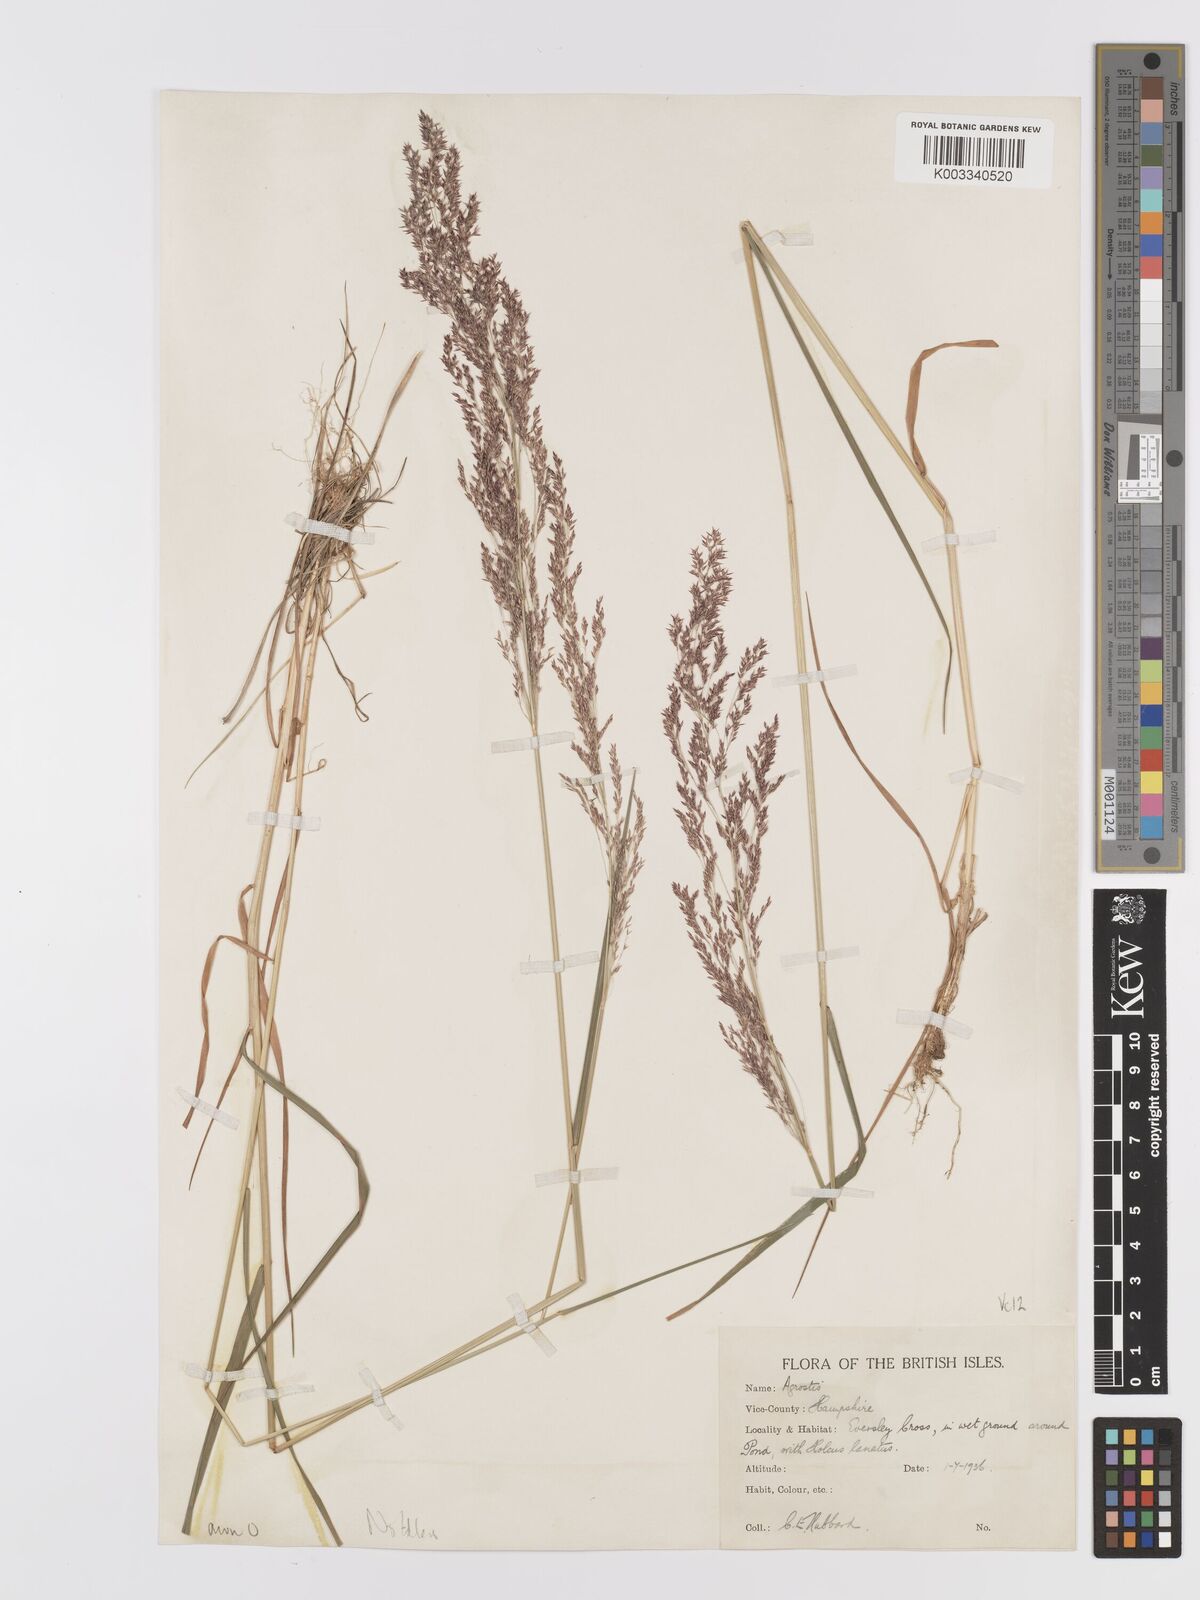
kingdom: Plantae
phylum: Tracheophyta
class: Liliopsida
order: Poales
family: Poaceae
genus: Agrostis
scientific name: Agrostis capillaris
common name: Colonial bentgrass
